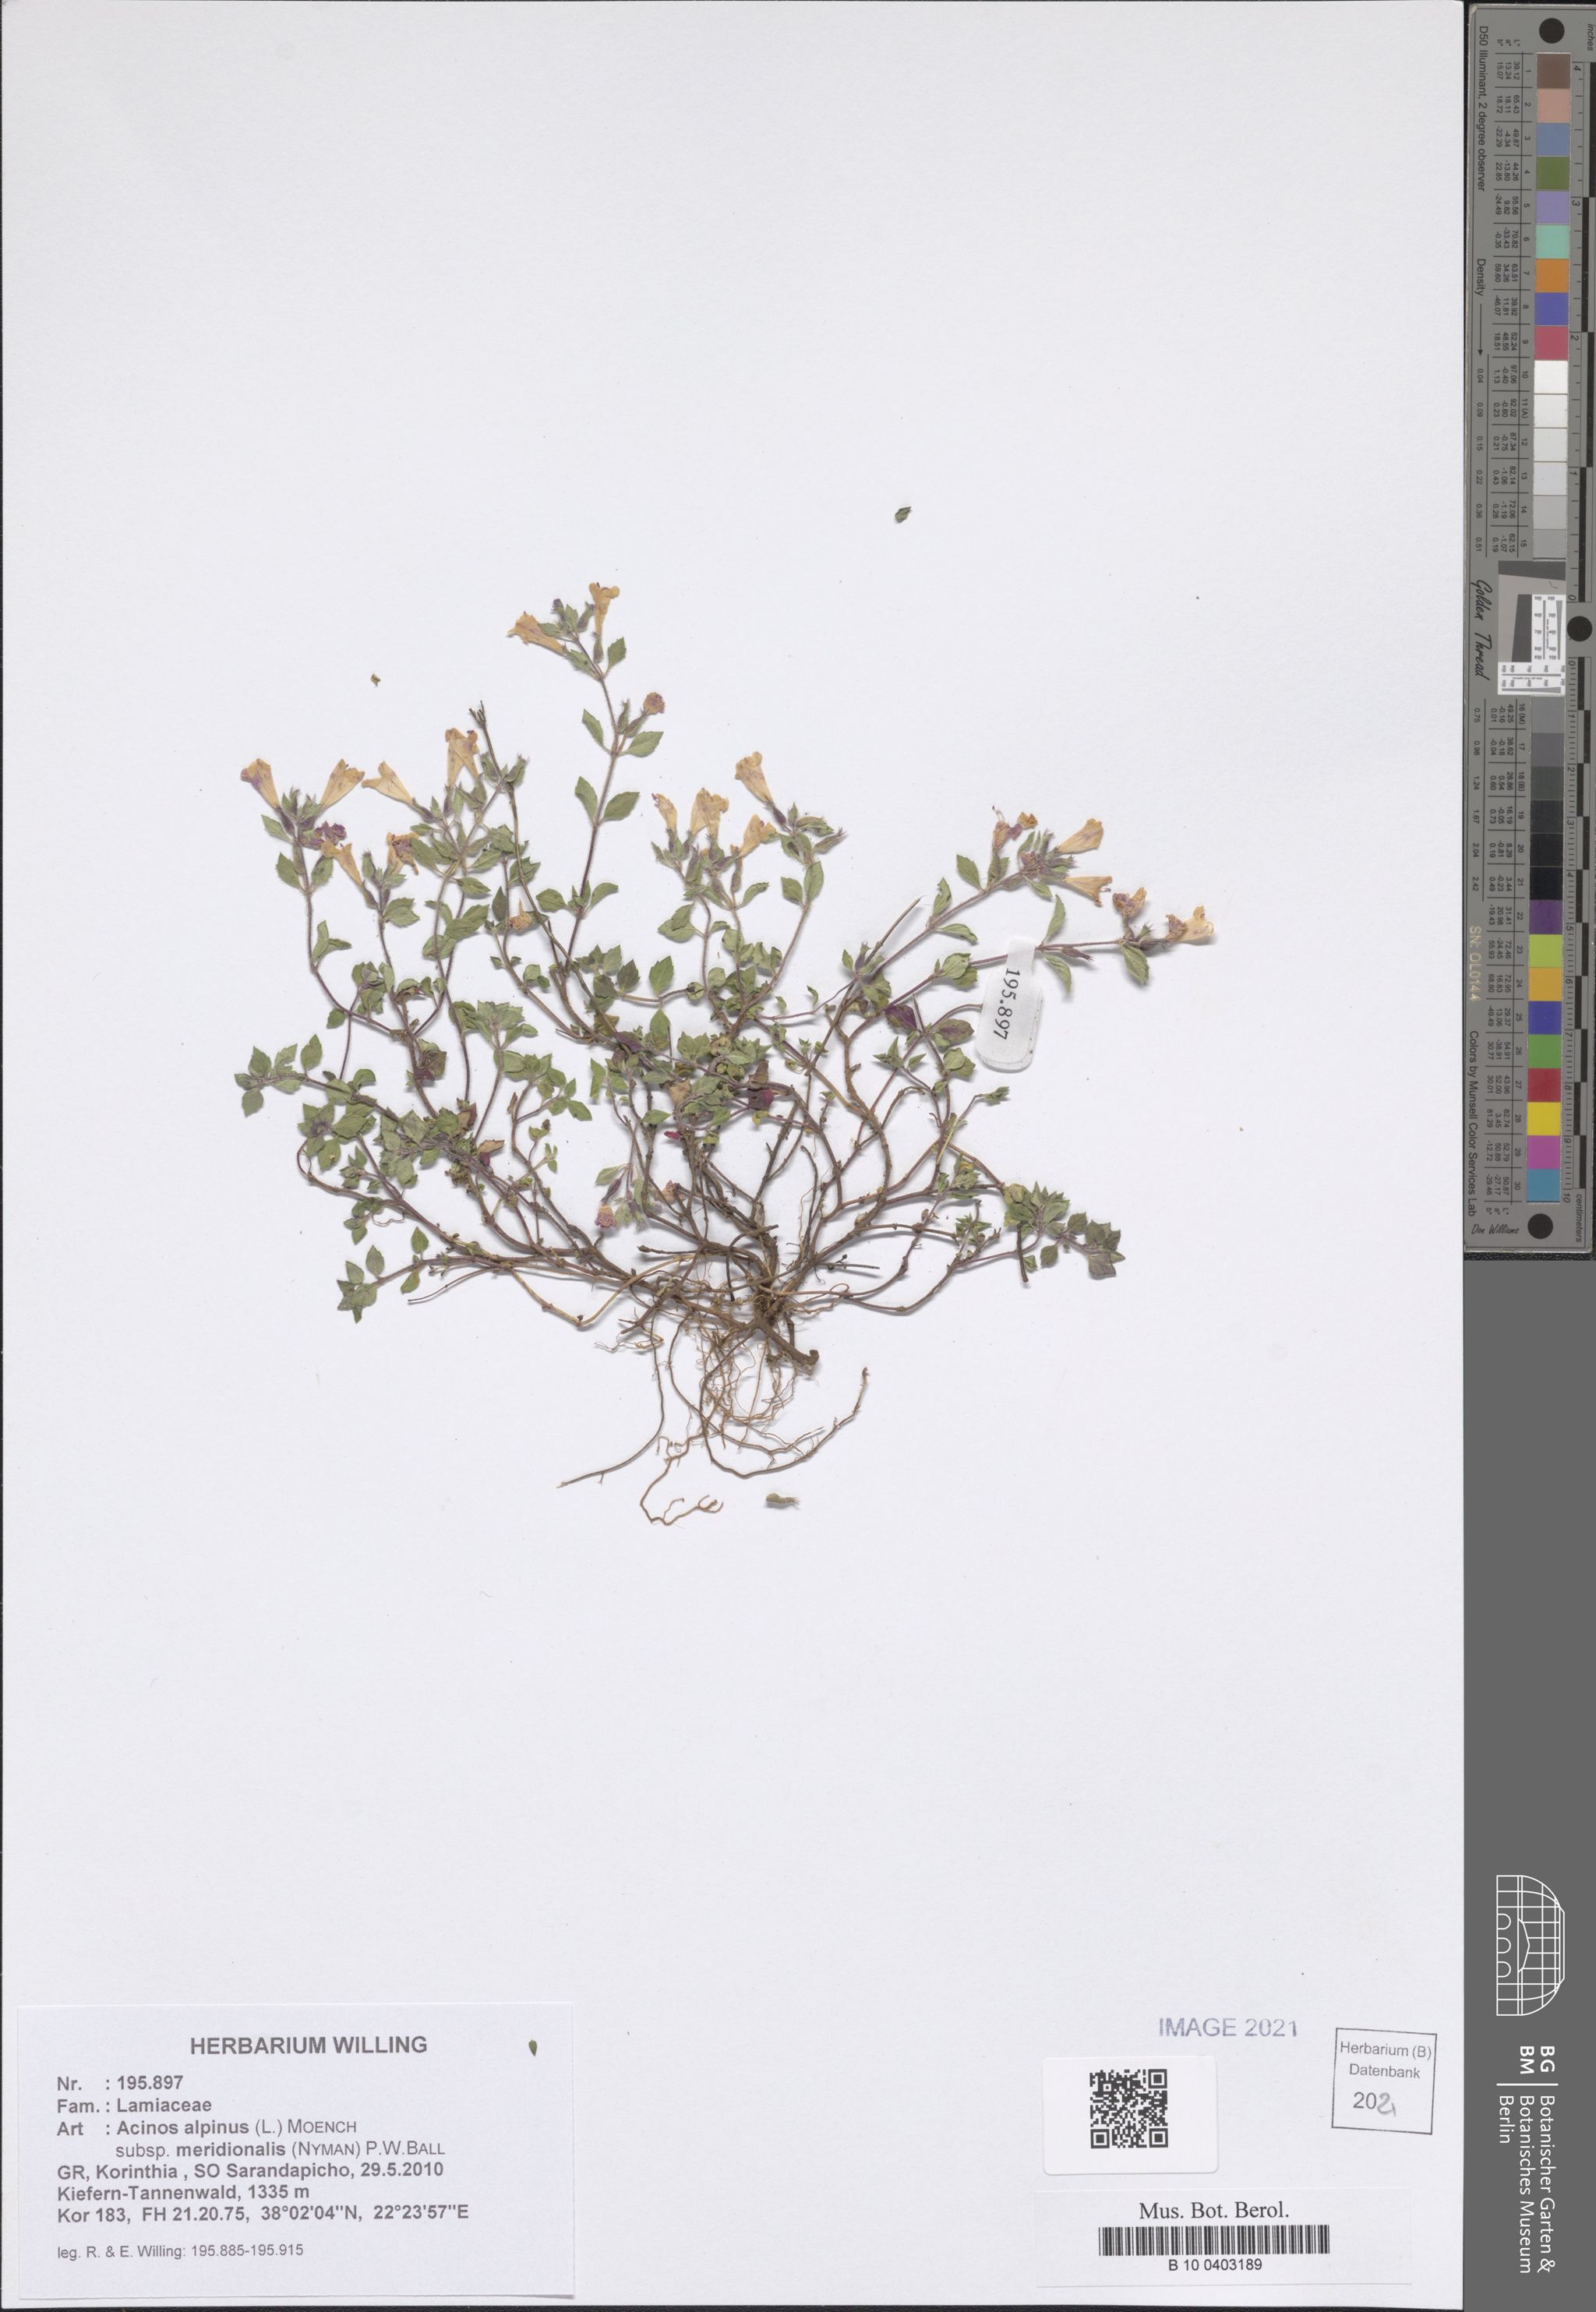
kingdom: Plantae
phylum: Tracheophyta
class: Magnoliopsida
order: Lamiales
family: Lamiaceae
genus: Clinopodium
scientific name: Clinopodium alpinum
